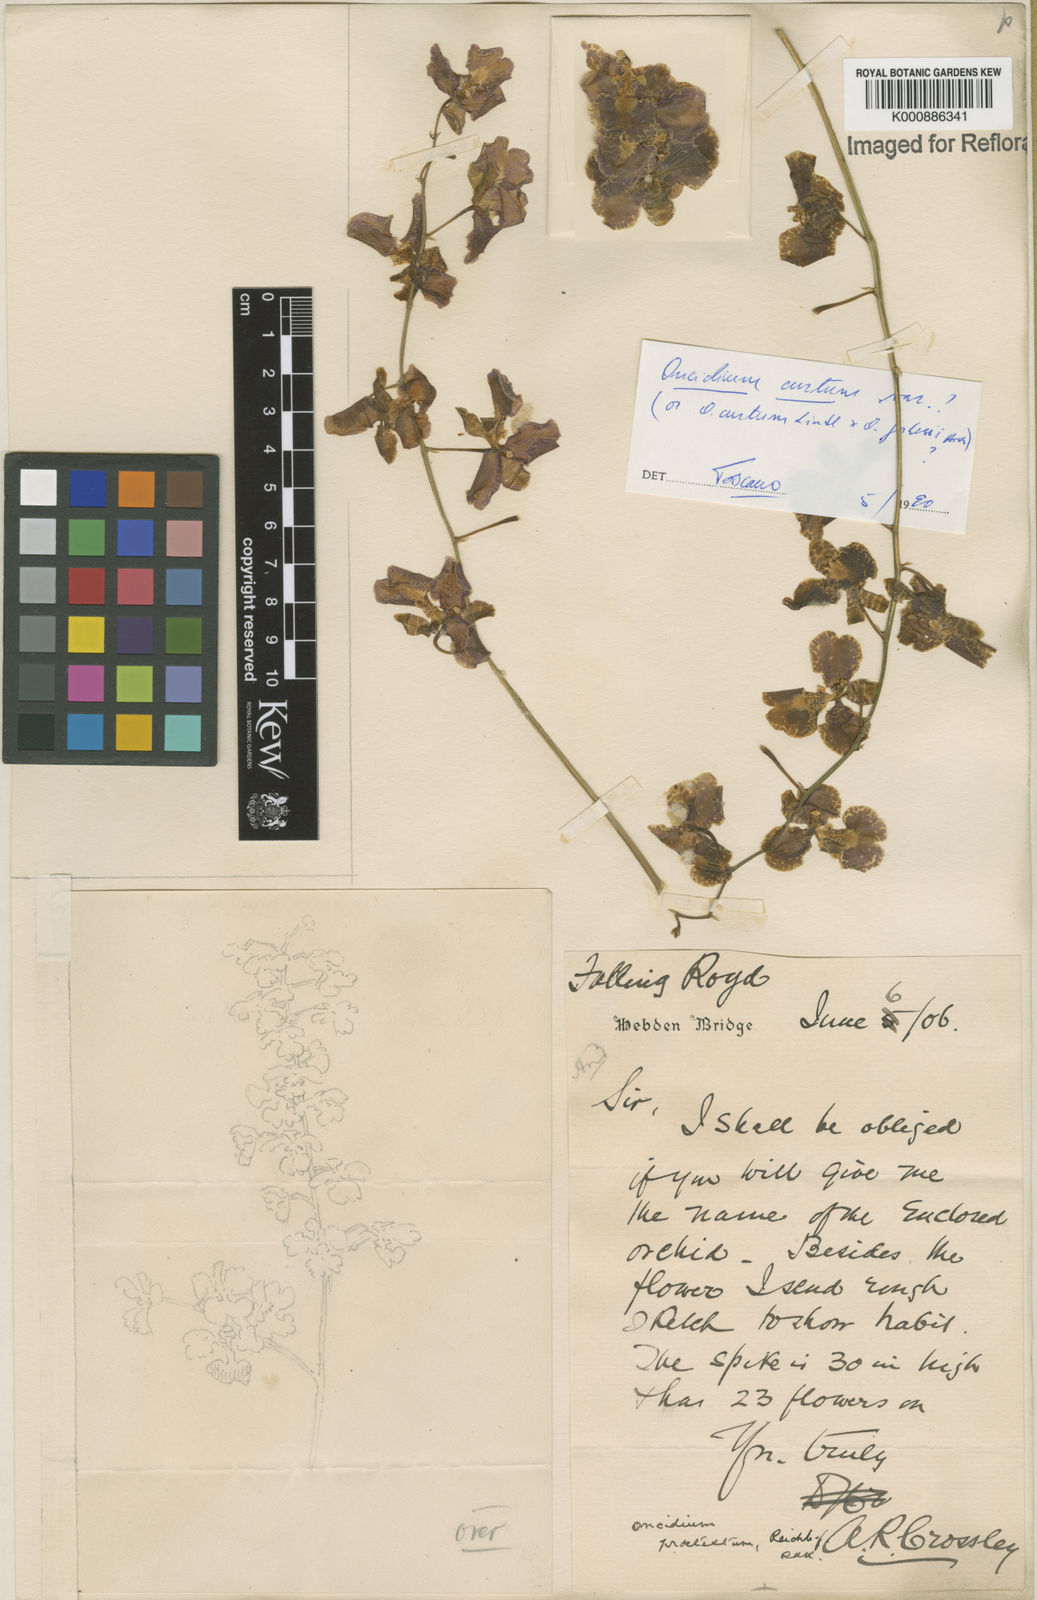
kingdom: Plantae
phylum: Tracheophyta
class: Liliopsida
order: Asparagales
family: Orchidaceae
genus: Gomesa
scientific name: Gomesa forbesii
